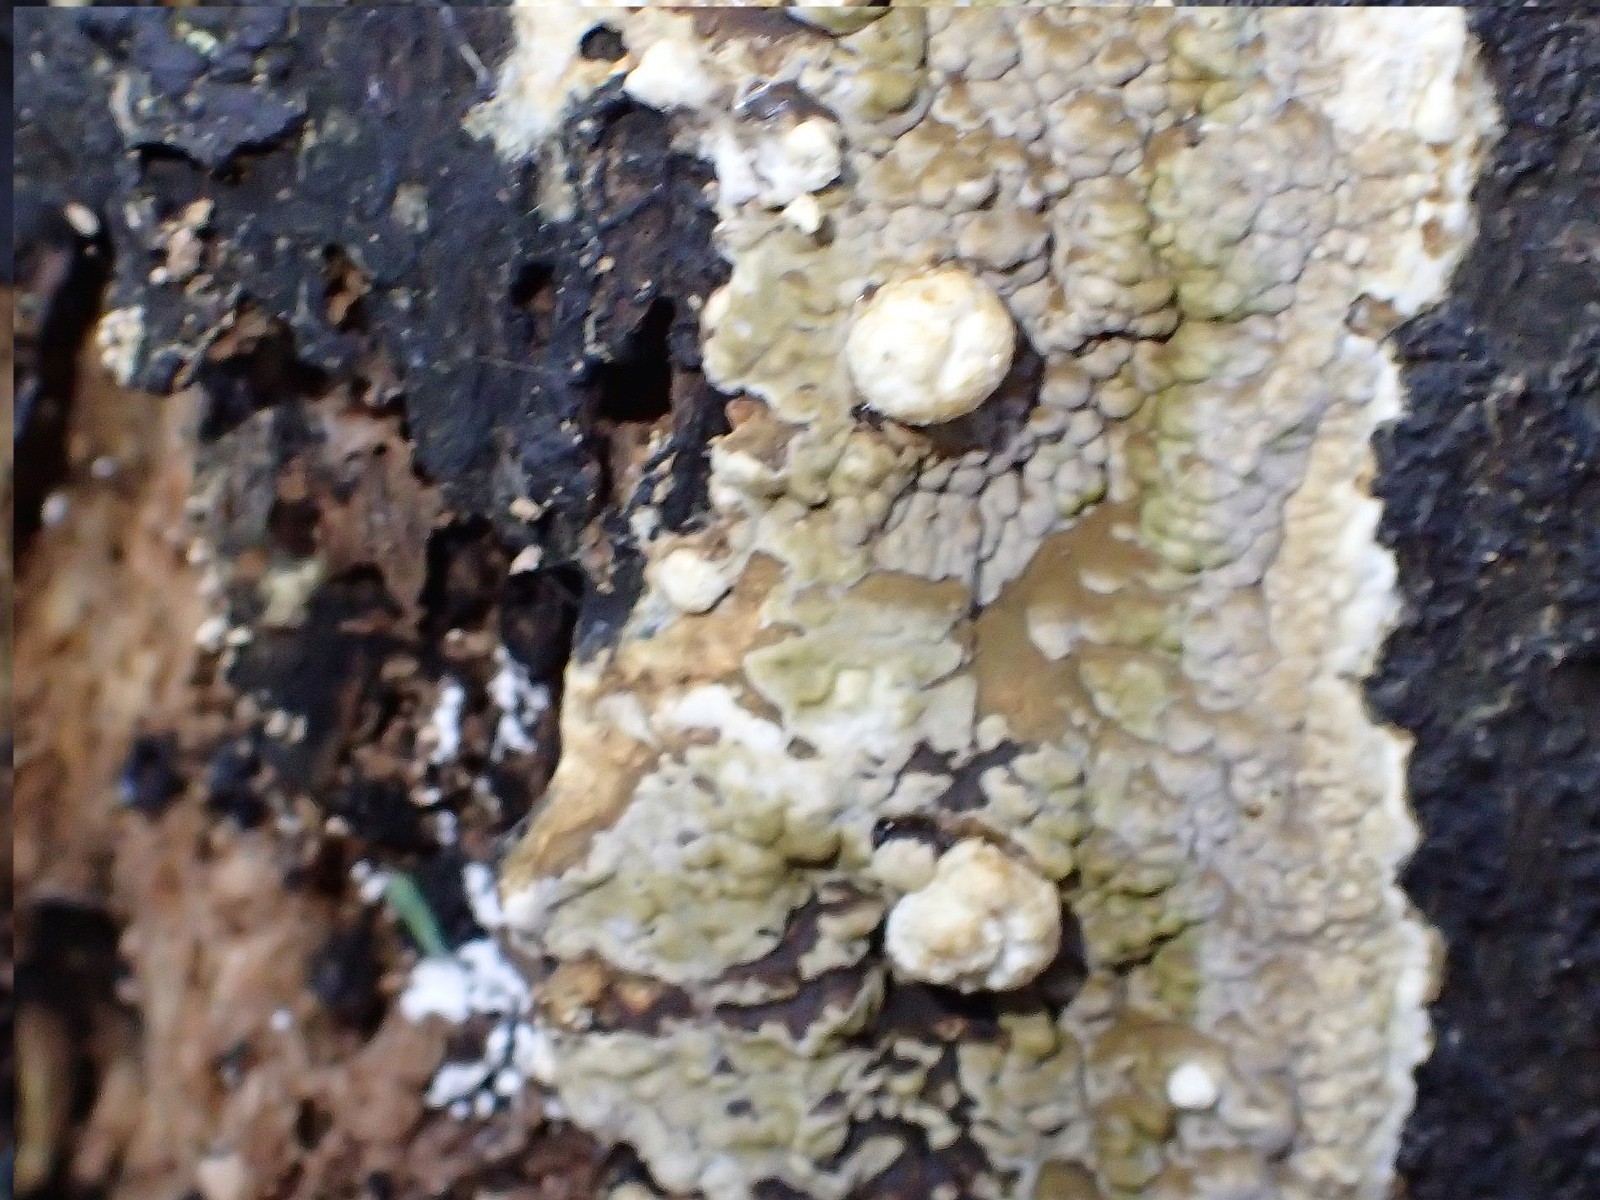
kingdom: Fungi
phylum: Ascomycota
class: Sordariomycetes
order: Xylariales
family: Hypoxylaceae
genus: Nodulisporium
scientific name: Nodulisporium cecidiogenes
